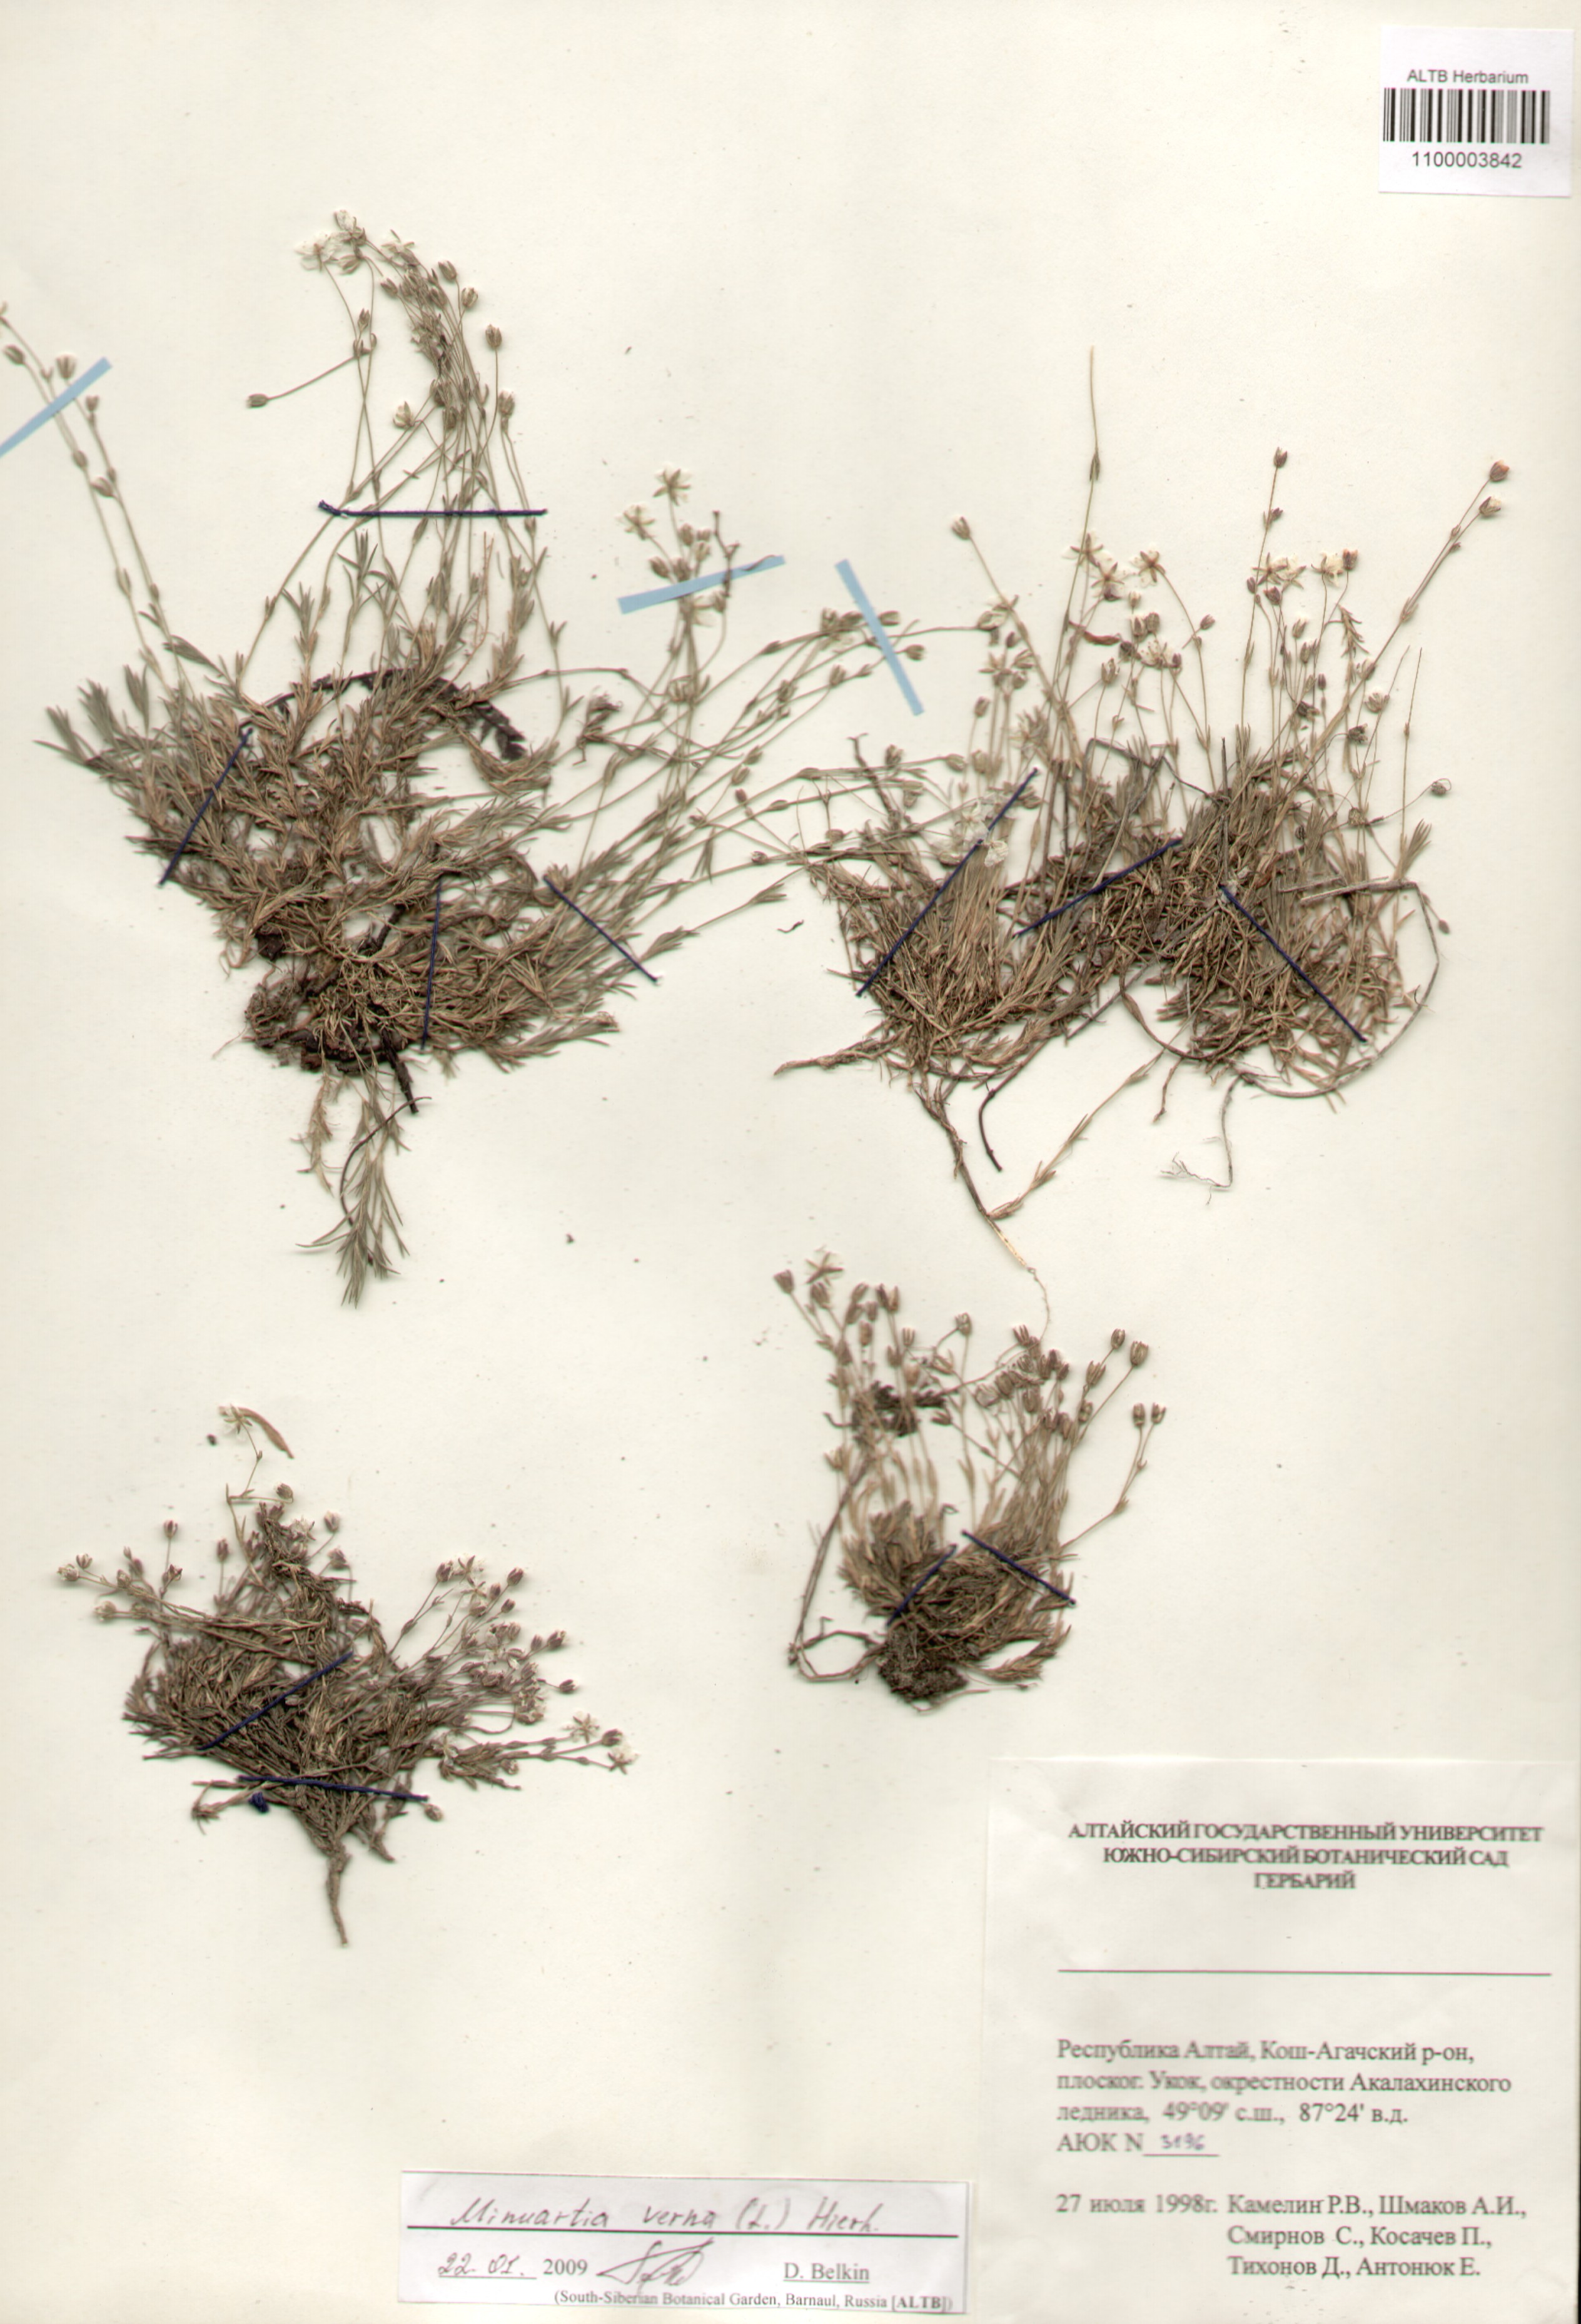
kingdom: Plantae
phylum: Tracheophyta
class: Magnoliopsida
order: Caryophyllales
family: Caryophyllaceae
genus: Sabulina
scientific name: Sabulina verna
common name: Spring sandwort
